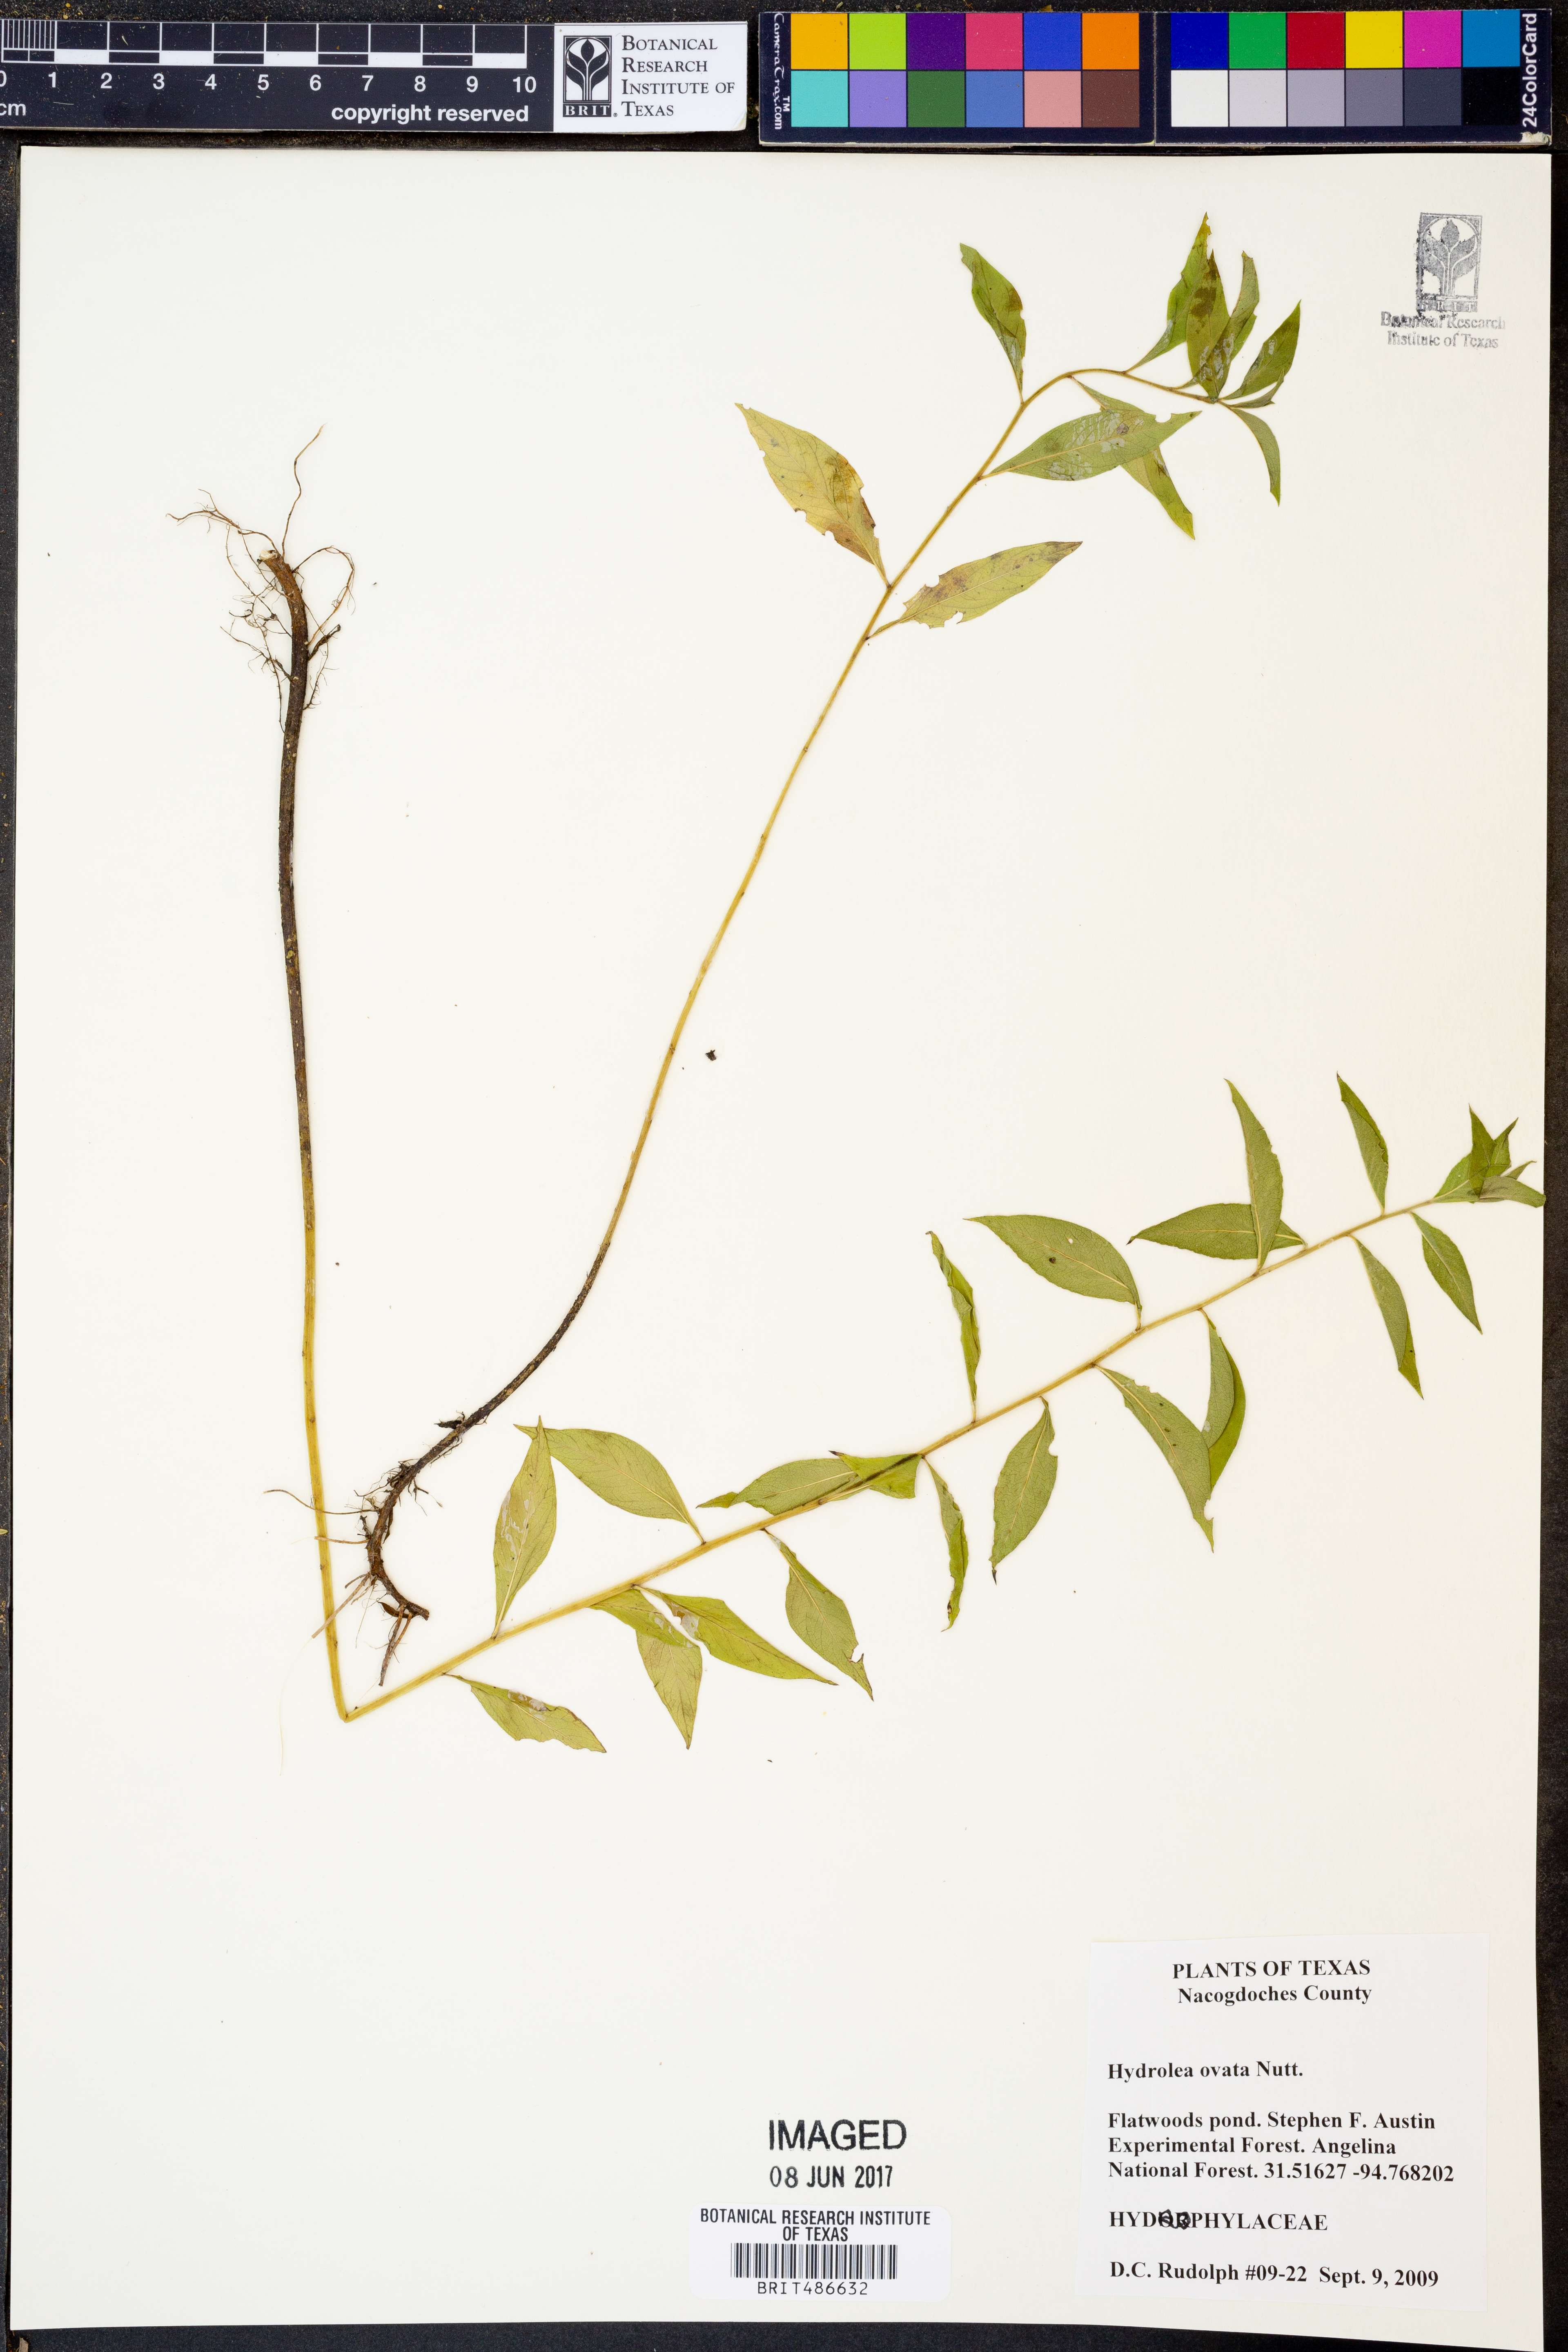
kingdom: Plantae
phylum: Tracheophyta
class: Magnoliopsida
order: Solanales
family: Hydroleaceae
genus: Hydrolea
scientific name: Hydrolea ovata
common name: Ovate false fiddleleaf
